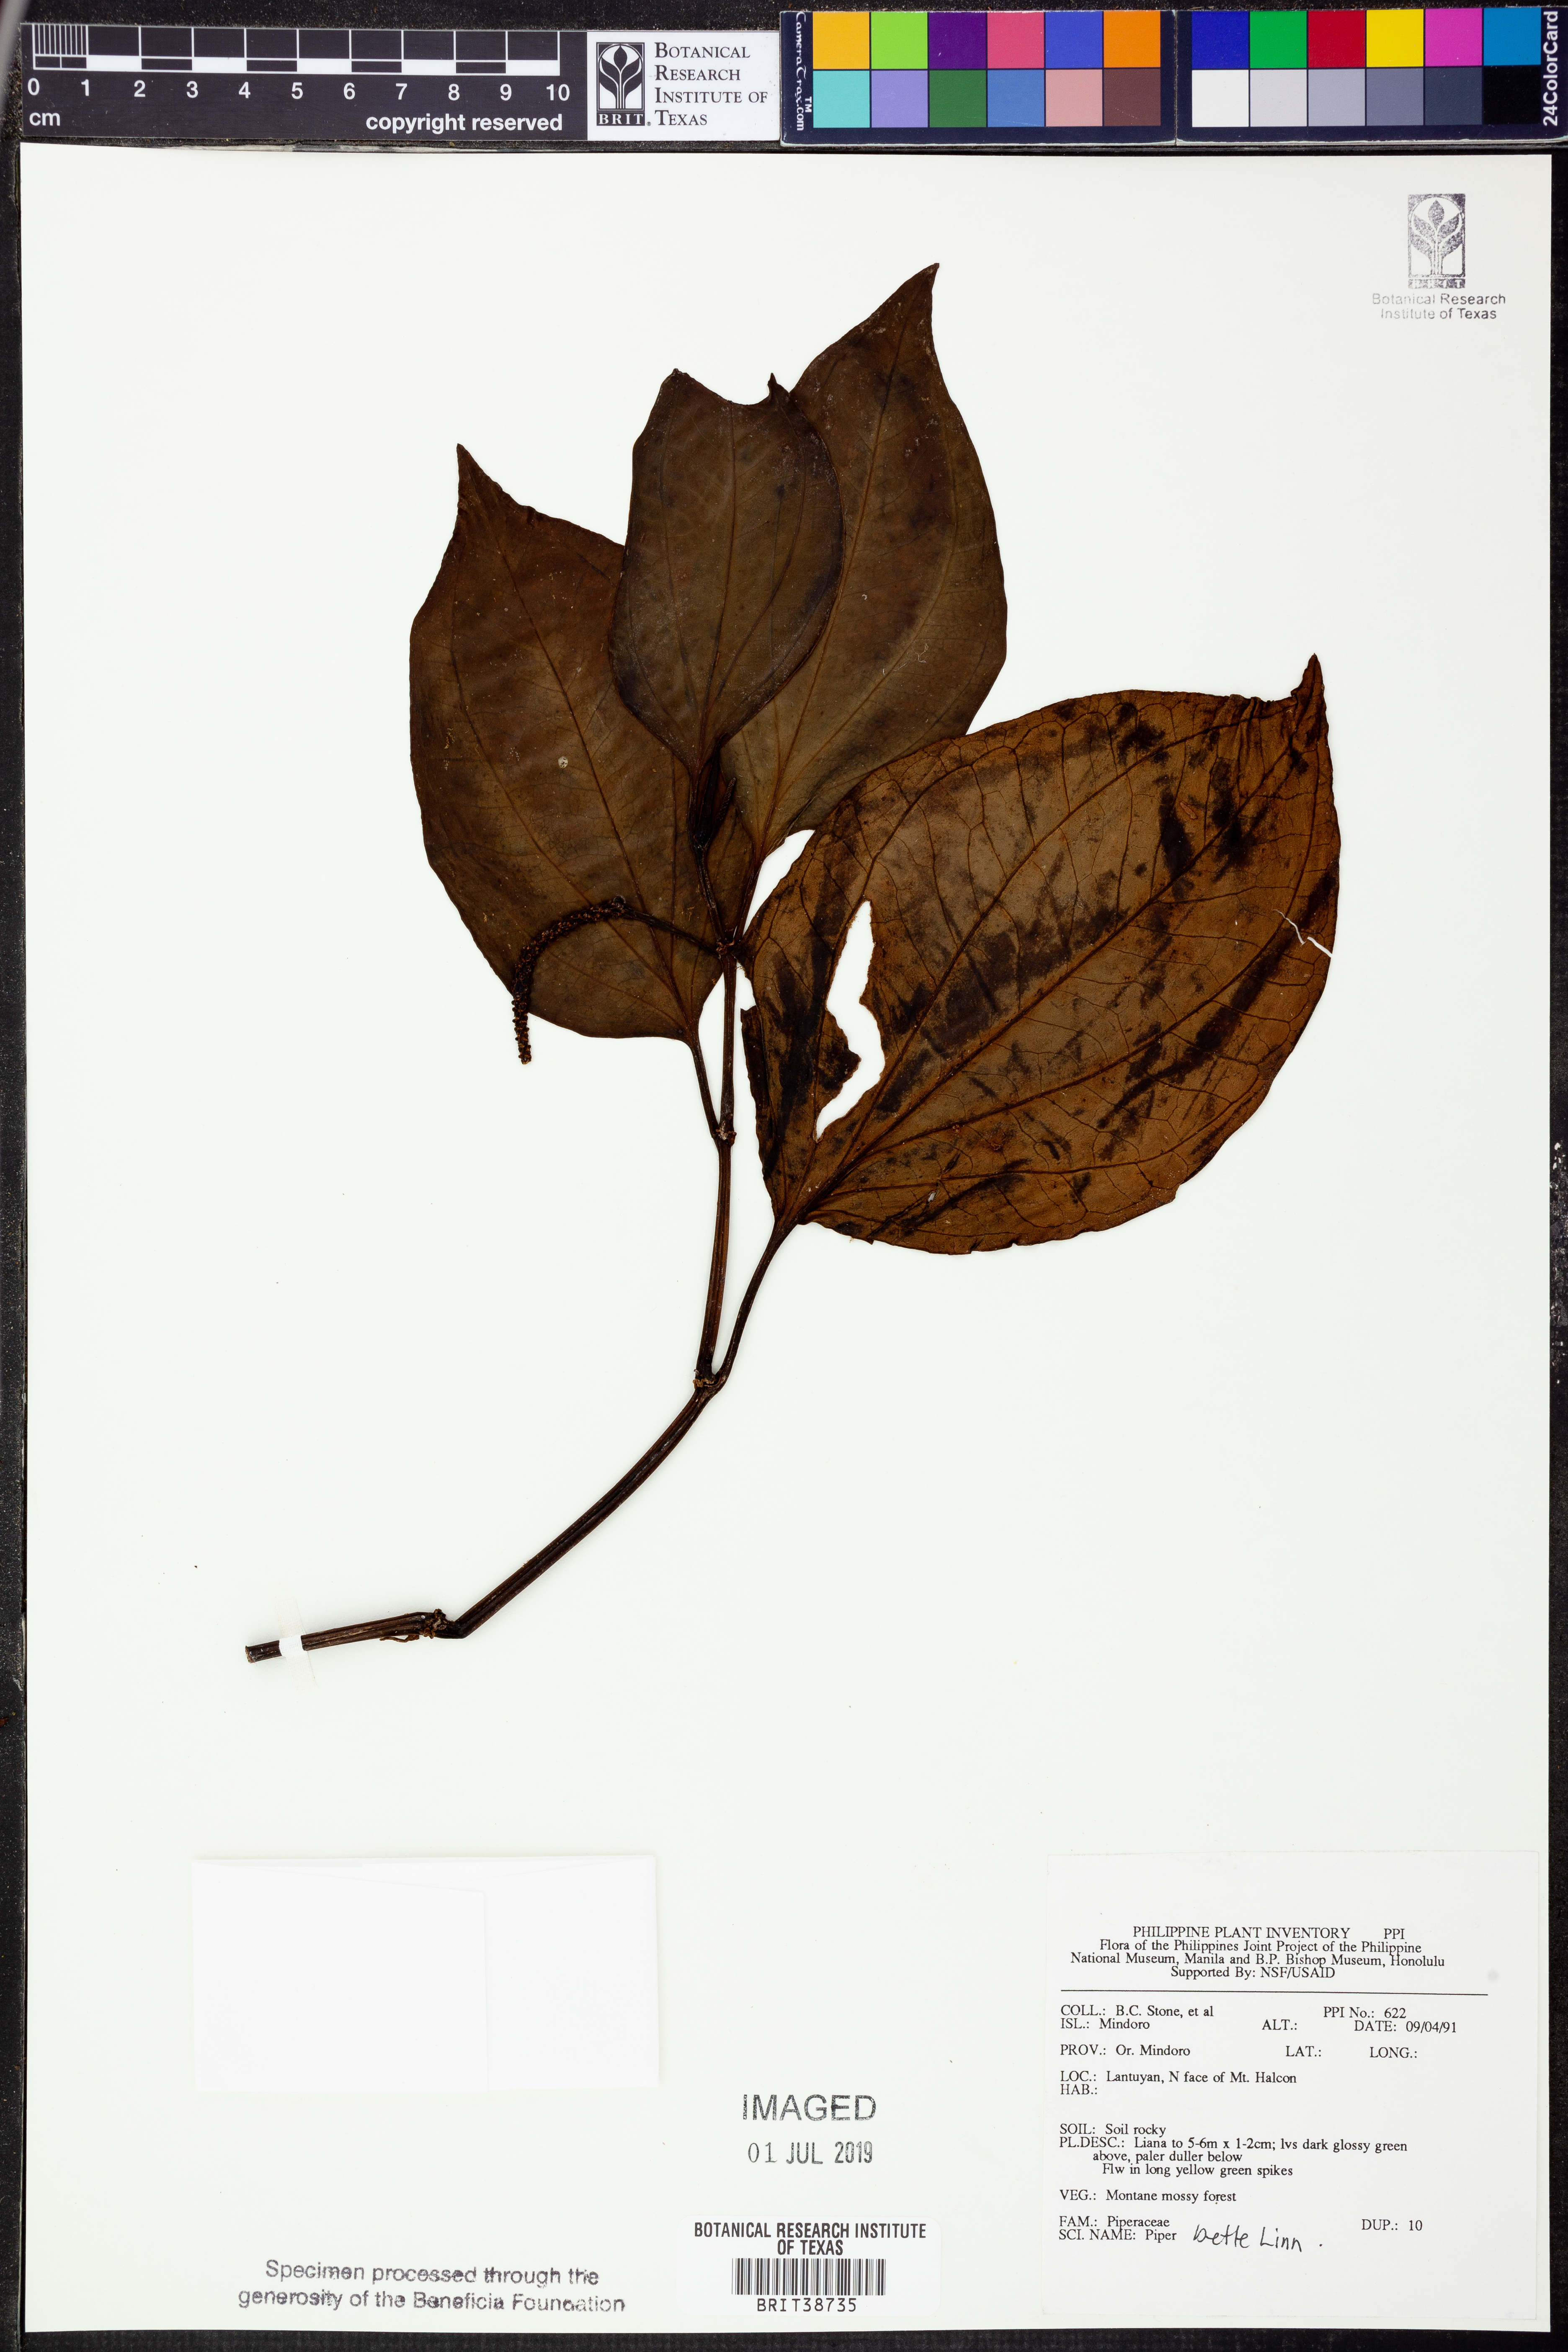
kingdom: Plantae
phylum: Tracheophyta
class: Magnoliopsida
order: Piperales
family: Piperaceae
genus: Piper
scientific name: Piper quinqueangulatum
